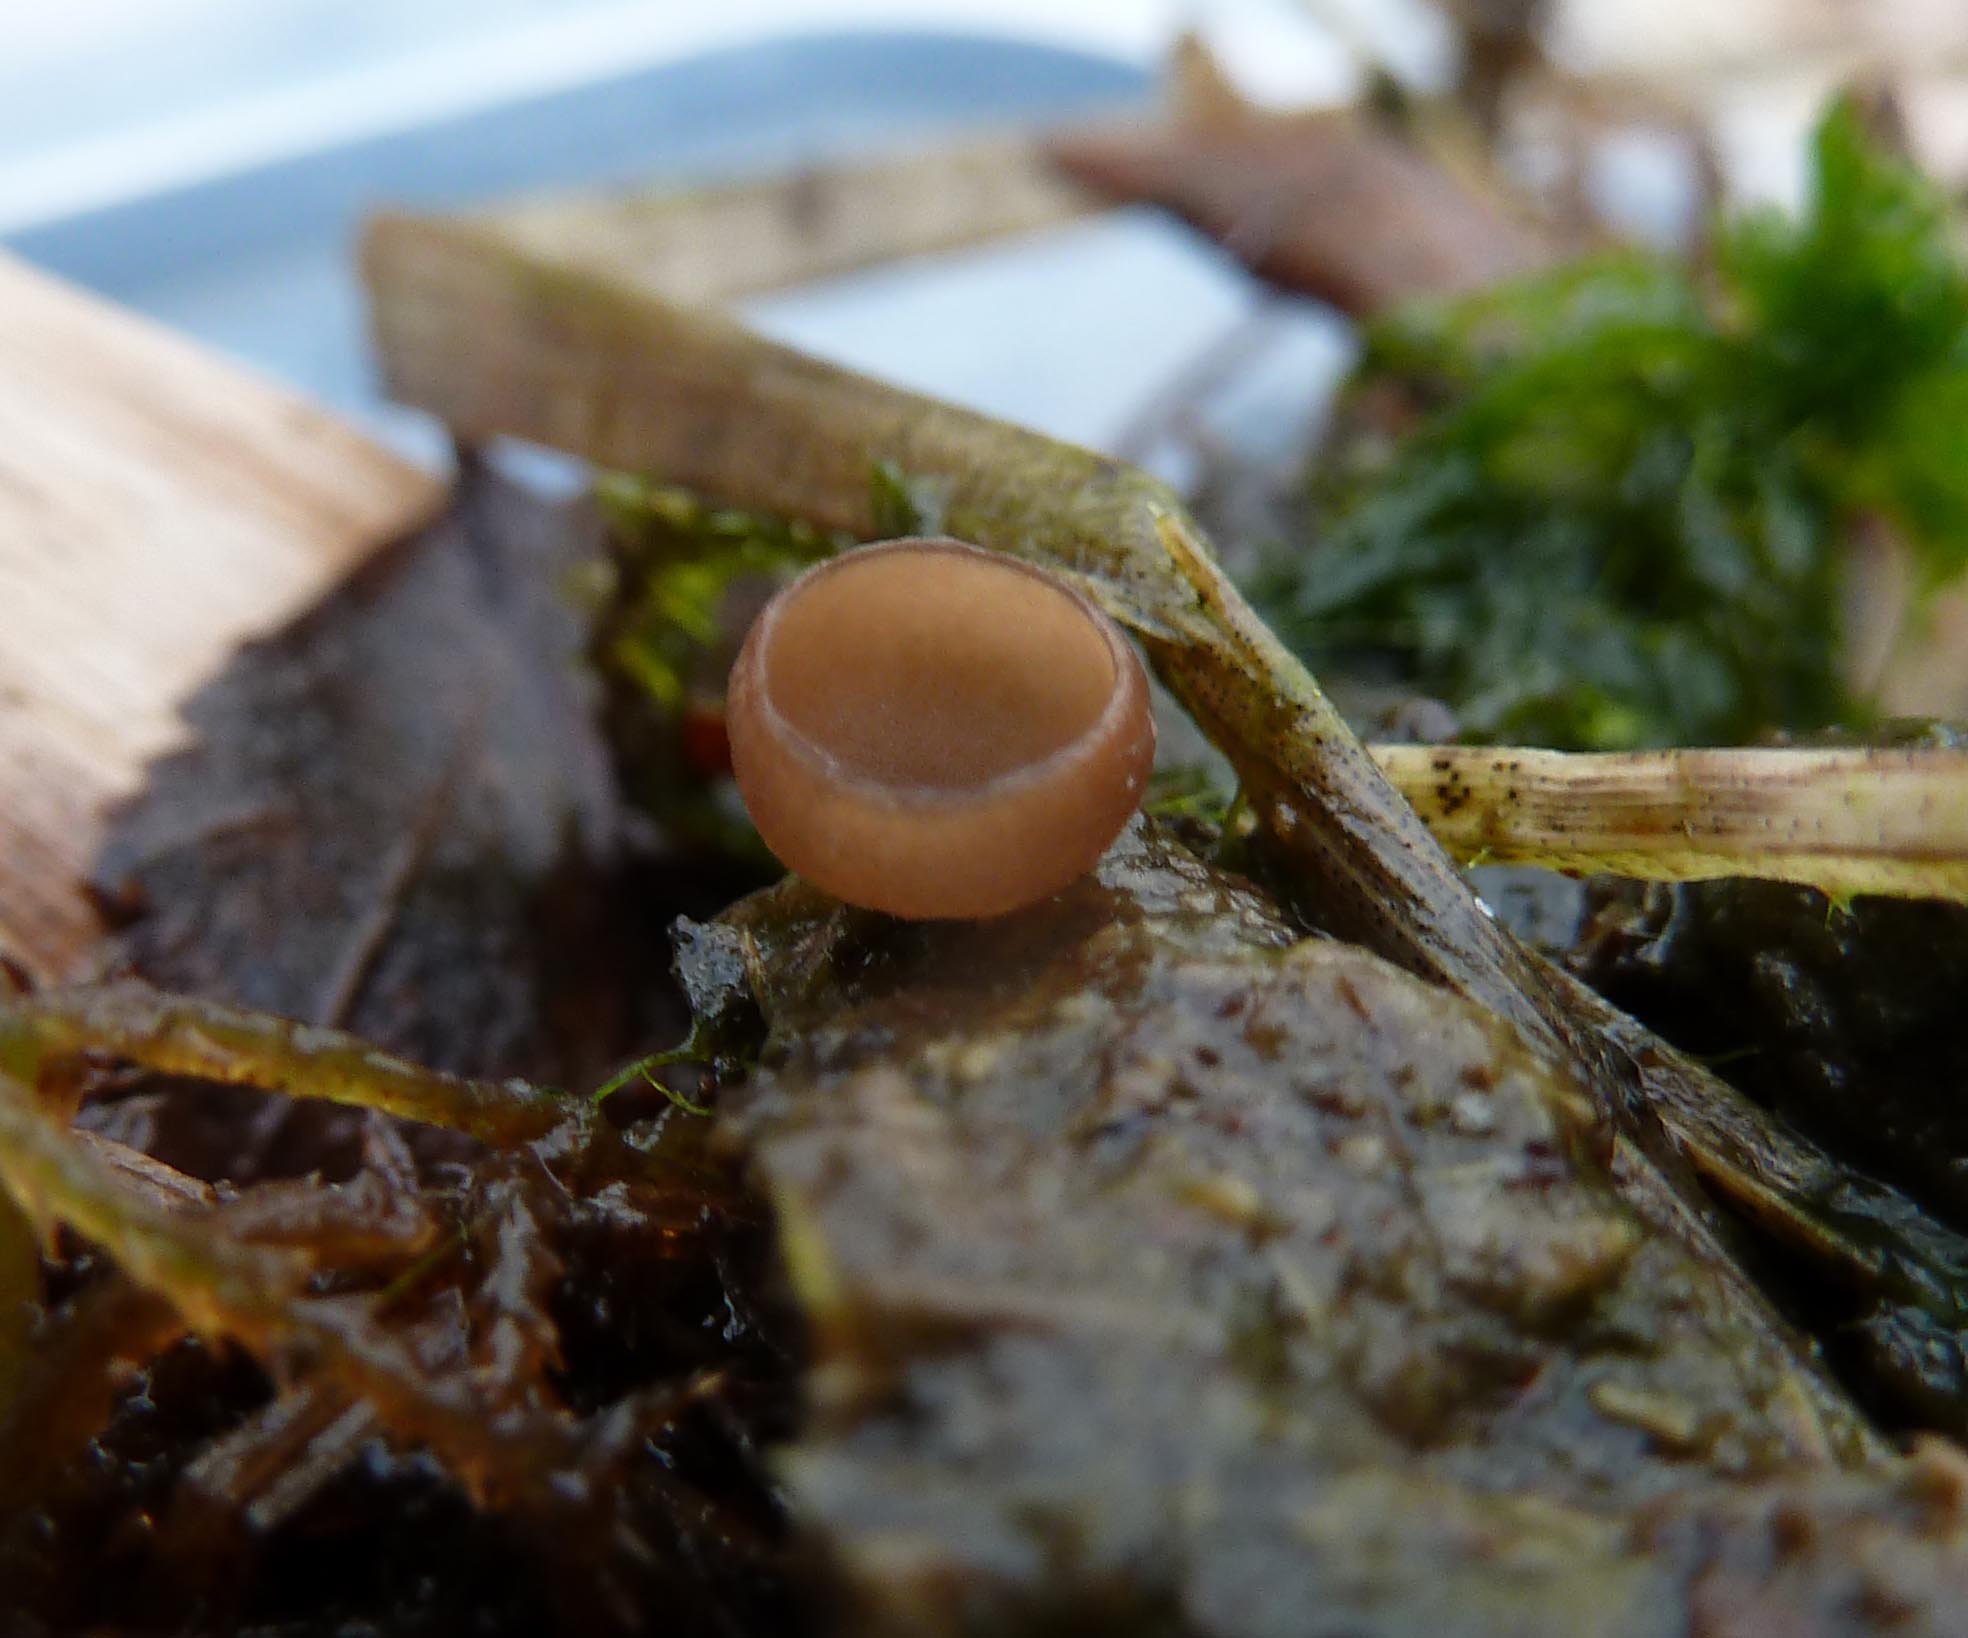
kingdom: Fungi
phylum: Ascomycota
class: Leotiomycetes
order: Helotiales
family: Sclerotiniaceae
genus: Ciboria
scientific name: Ciboria caucus
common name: rakle-knoldskive
